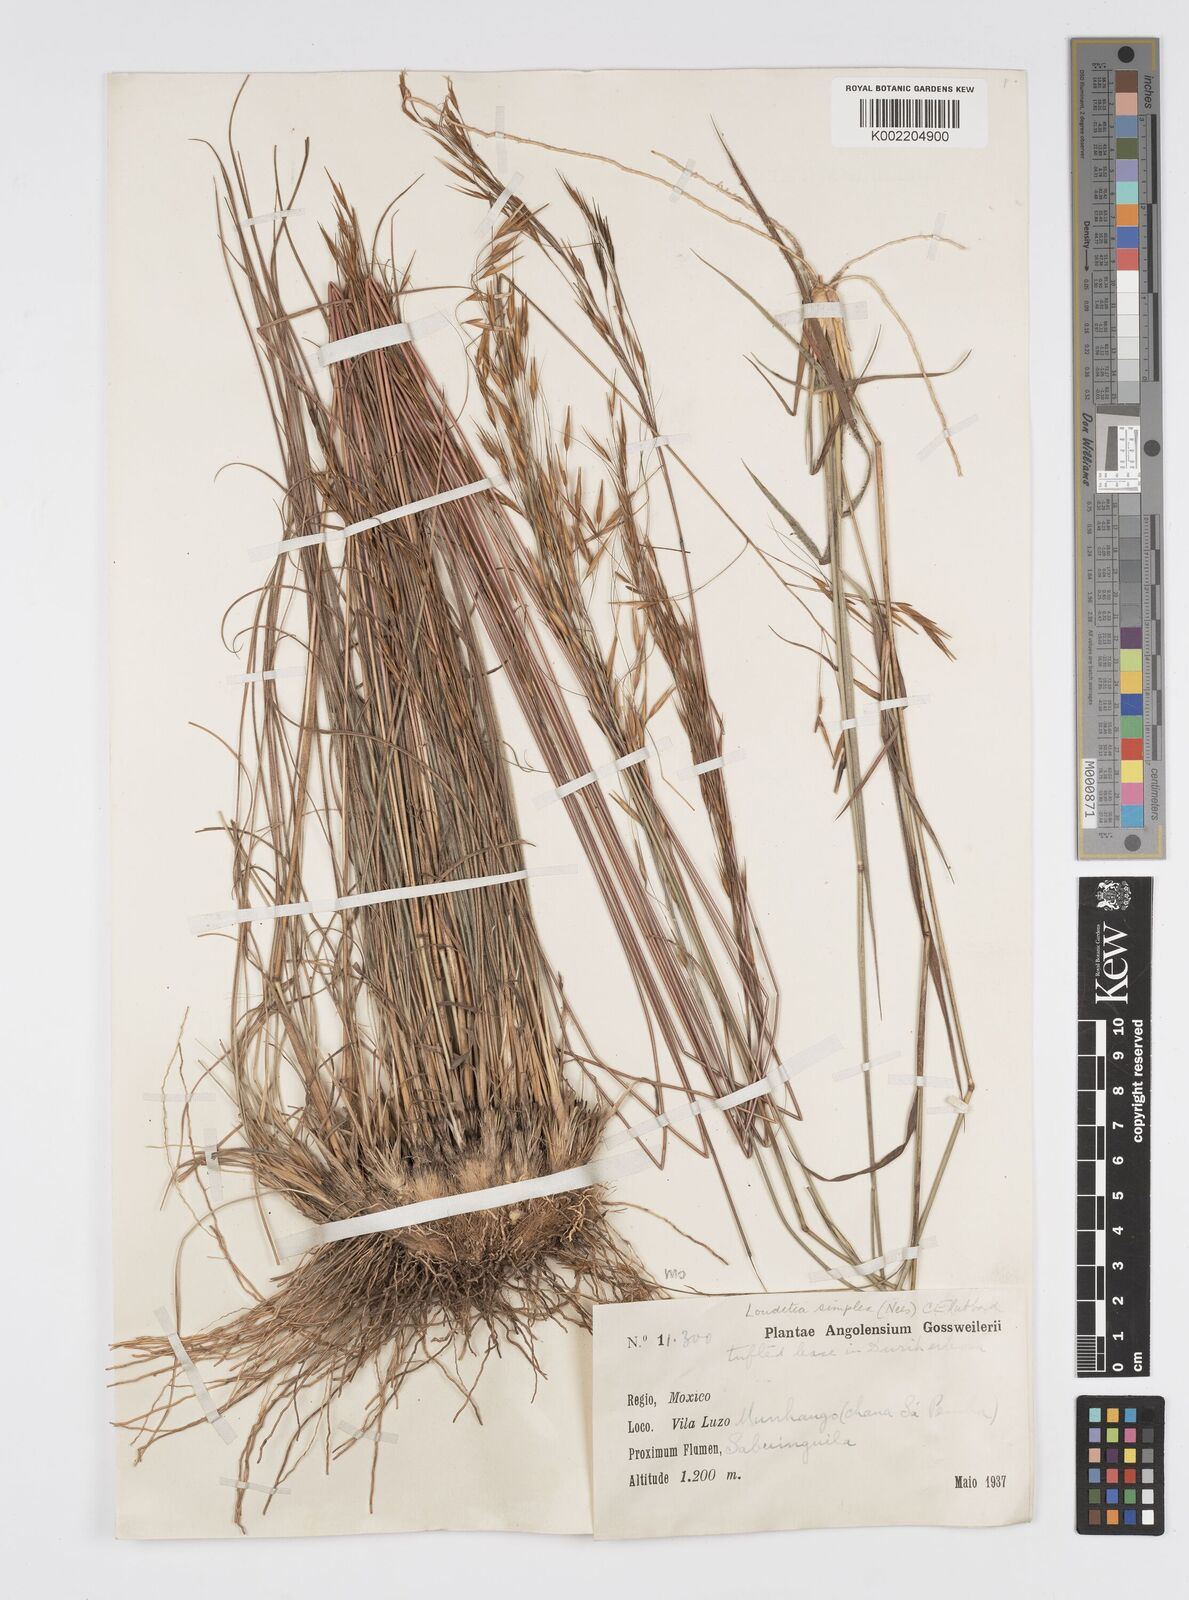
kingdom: Plantae
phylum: Tracheophyta
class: Liliopsida
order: Poales
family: Poaceae
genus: Loudetia
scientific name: Loudetia simplex
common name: Common russet grass
